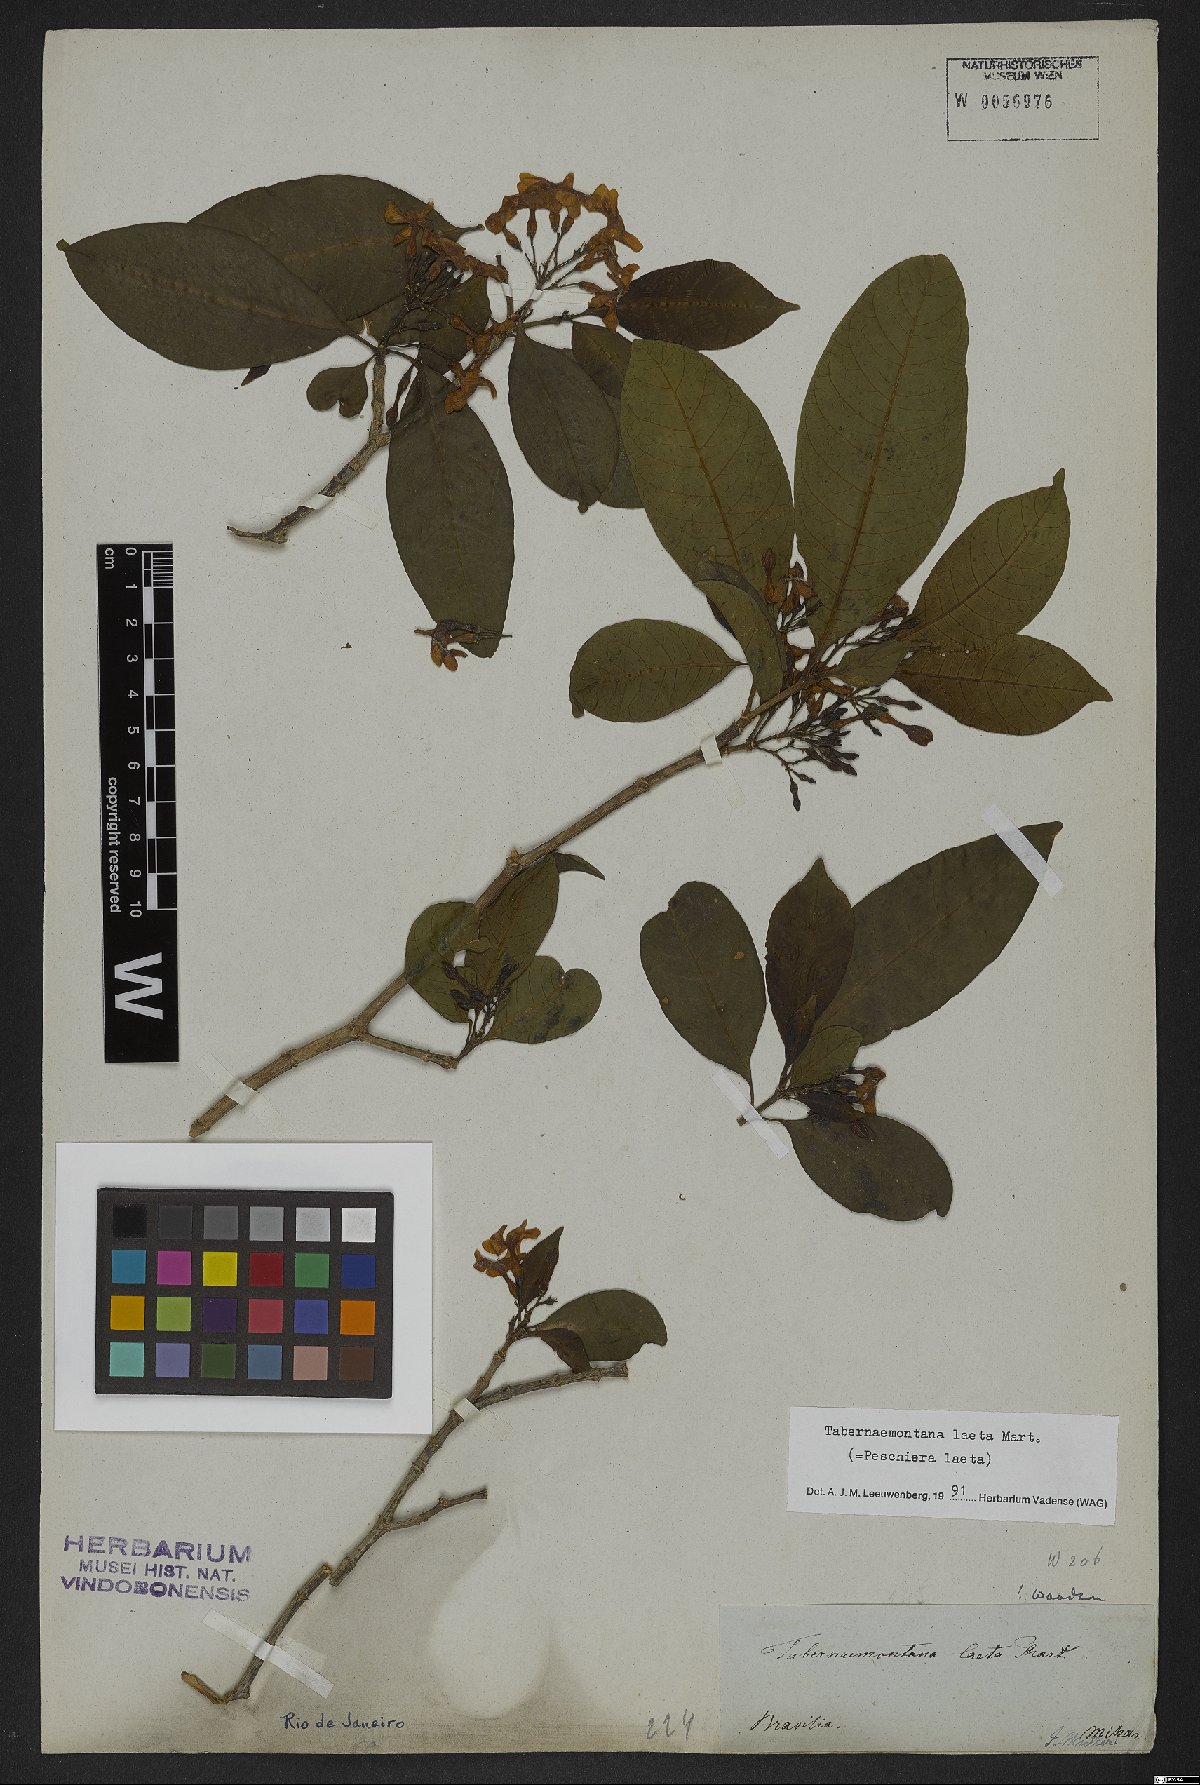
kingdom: Plantae
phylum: Tracheophyta
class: Magnoliopsida
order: Gentianales
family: Apocynaceae
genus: Tabernaemontana
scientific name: Tabernaemontana laeta
